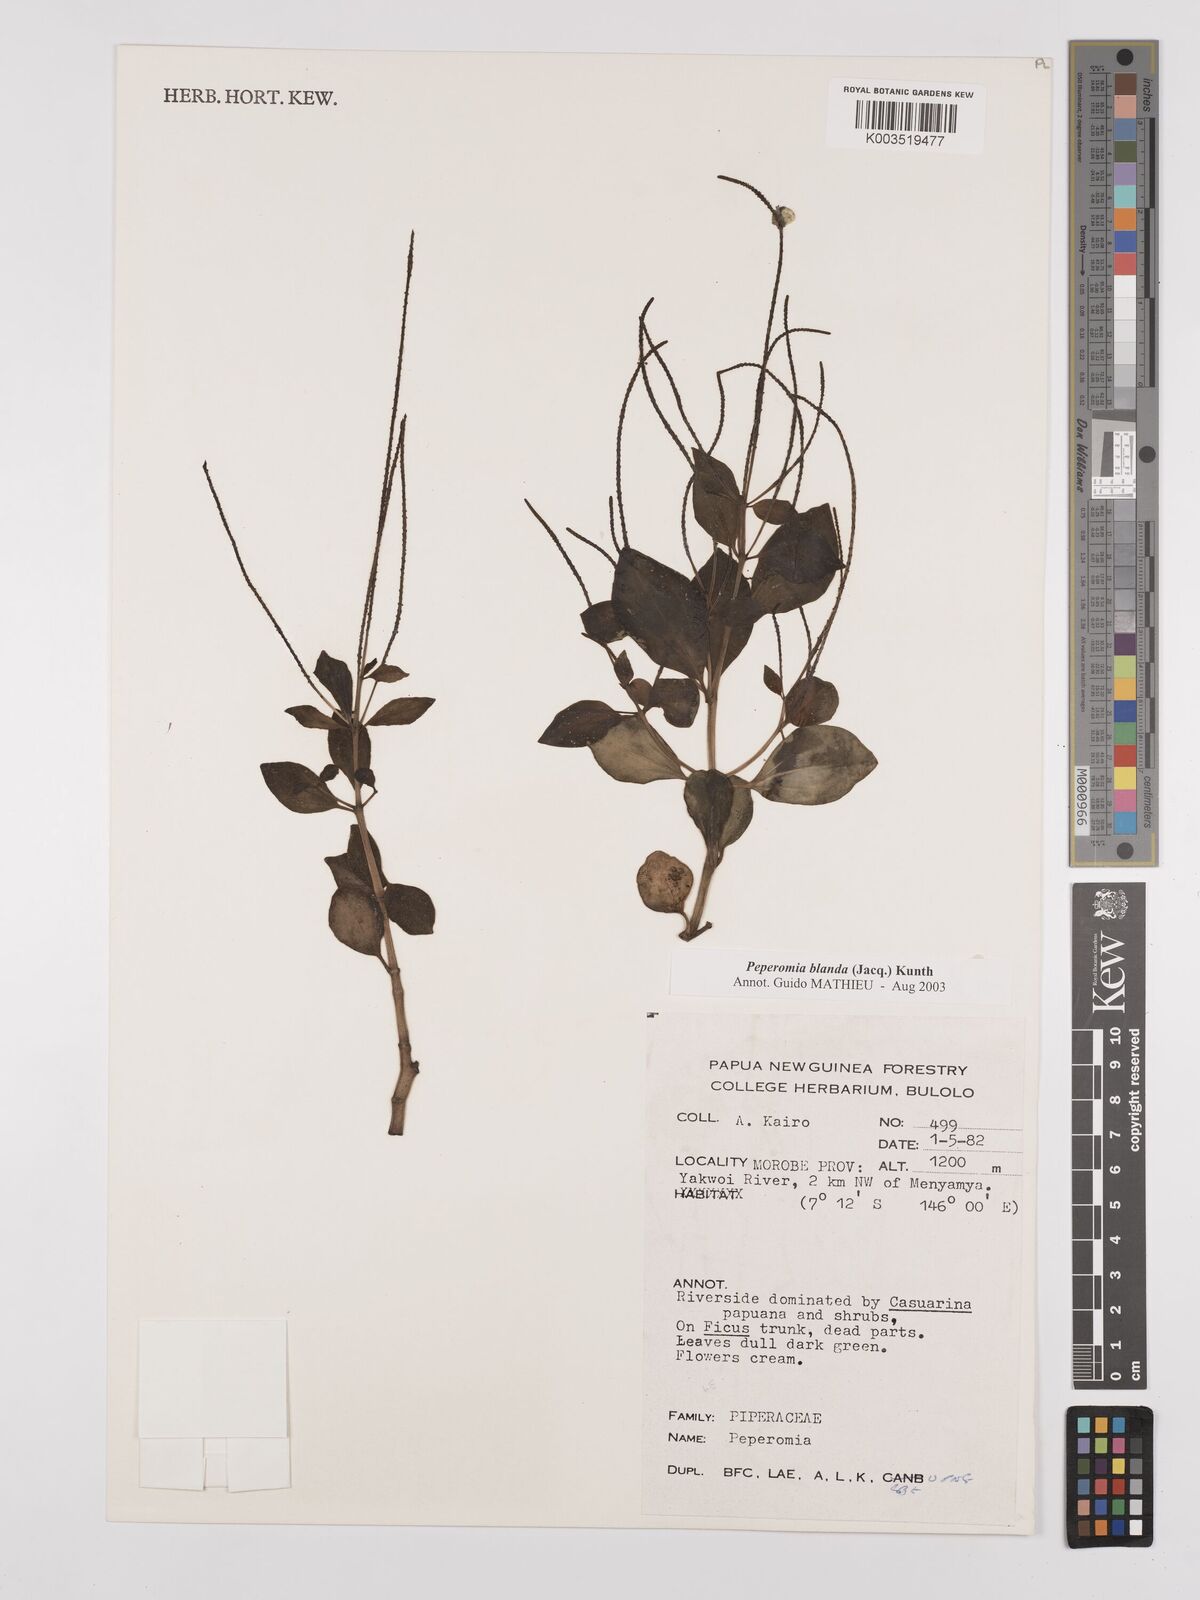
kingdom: Plantae
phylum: Tracheophyta
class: Magnoliopsida
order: Piperales
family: Piperaceae
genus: Peperomia
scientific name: Peperomia blanda
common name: Arid-land peperomia
